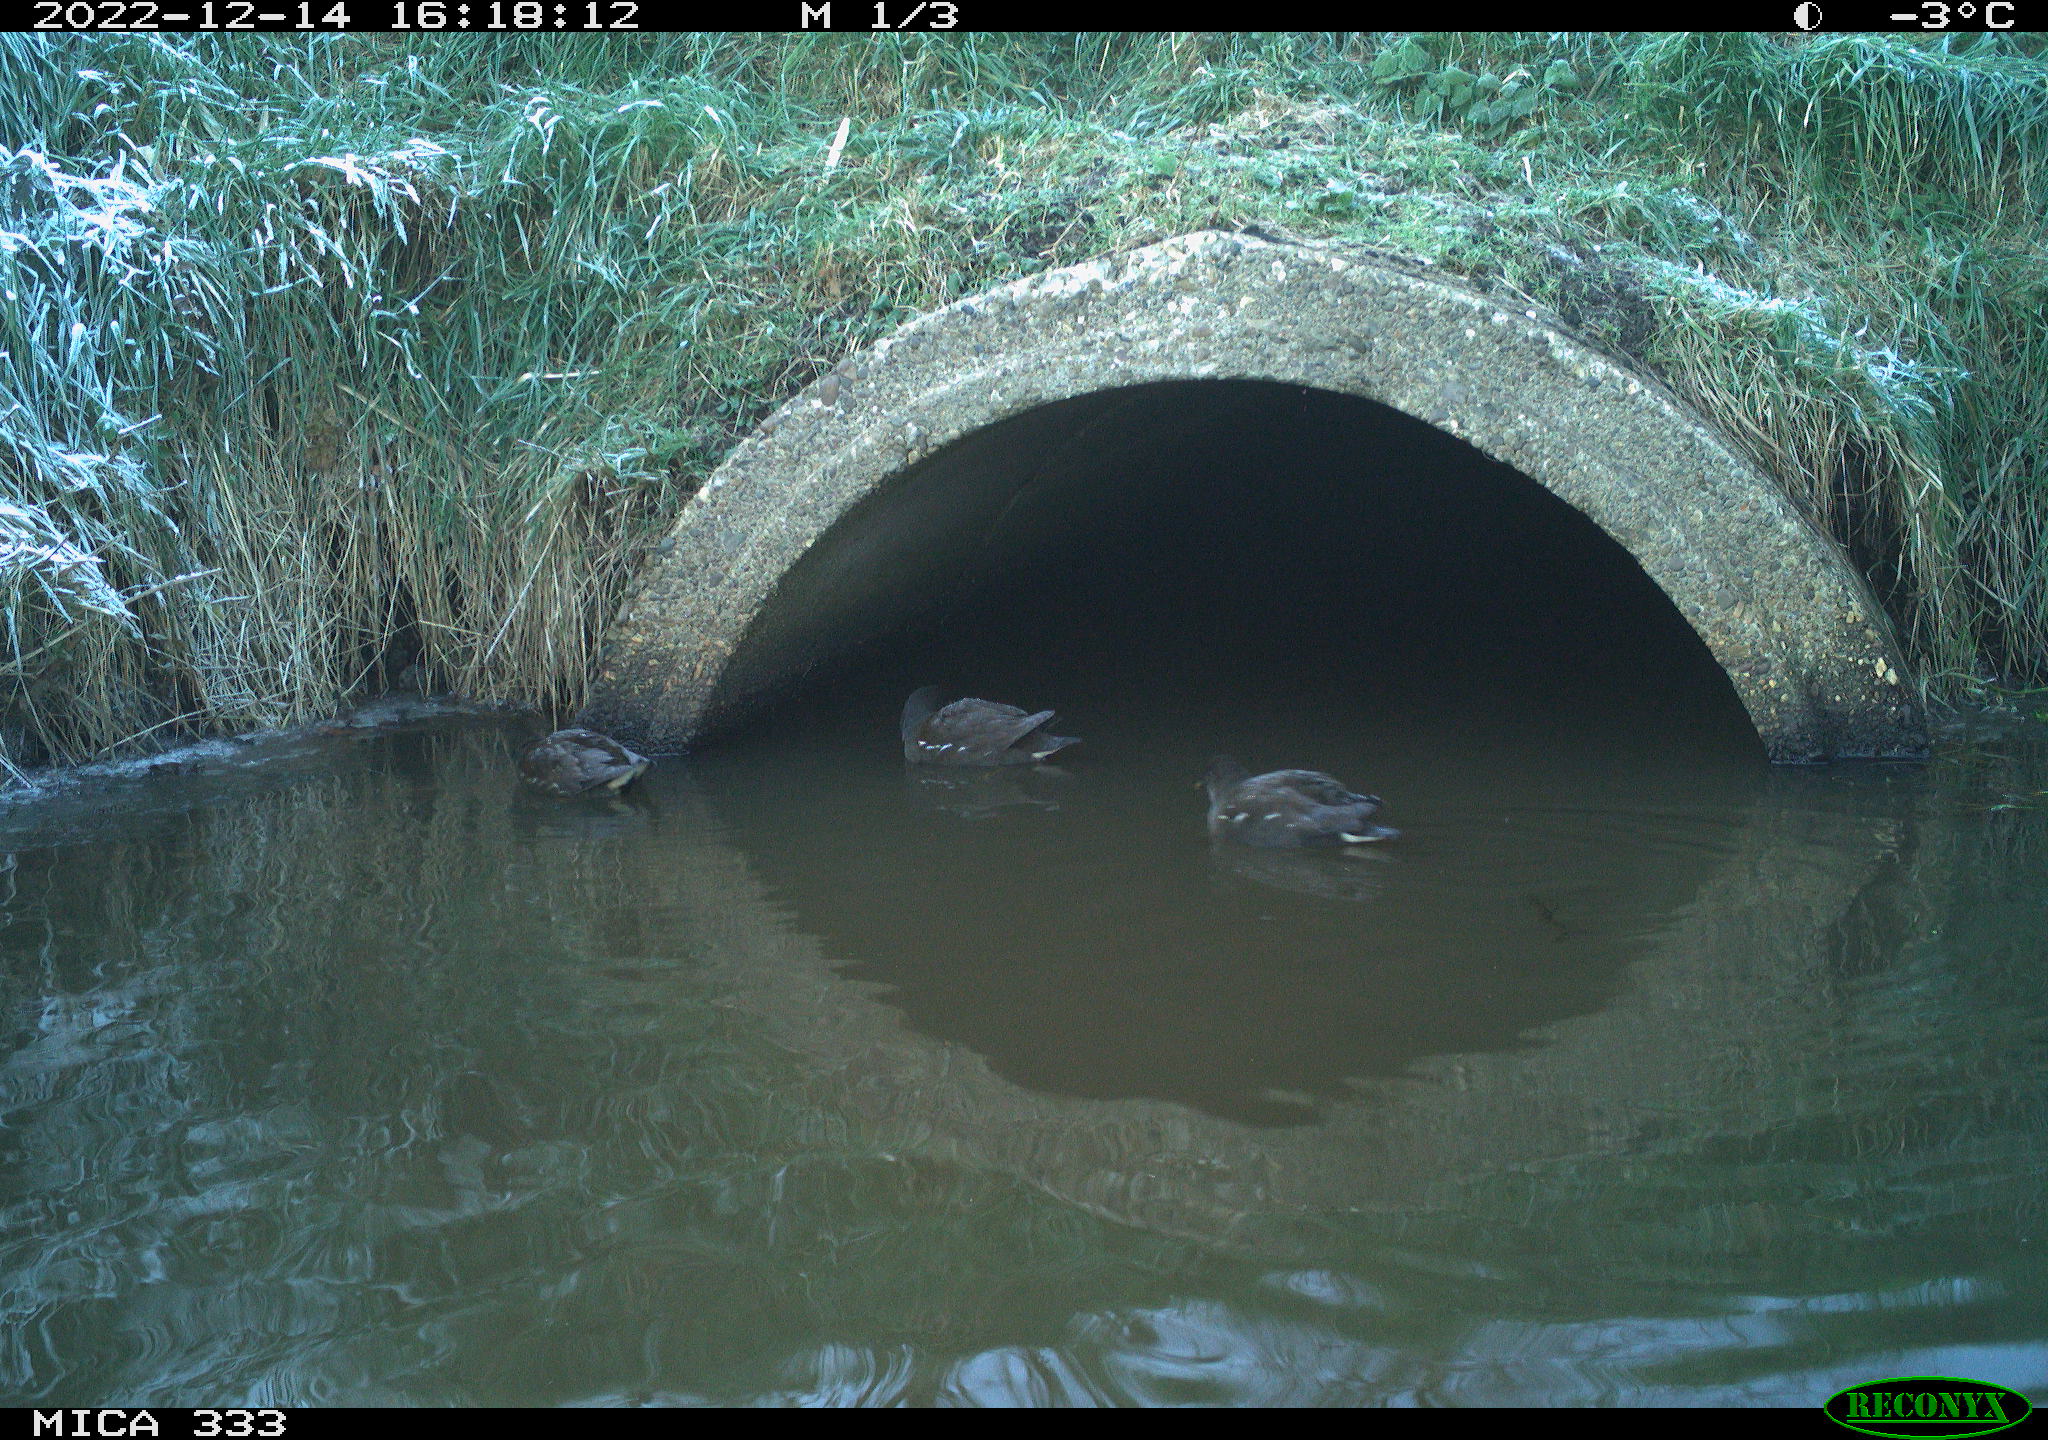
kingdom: Animalia
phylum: Chordata
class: Aves
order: Gruiformes
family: Rallidae
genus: Gallinula
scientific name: Gallinula chloropus
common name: Common moorhen
